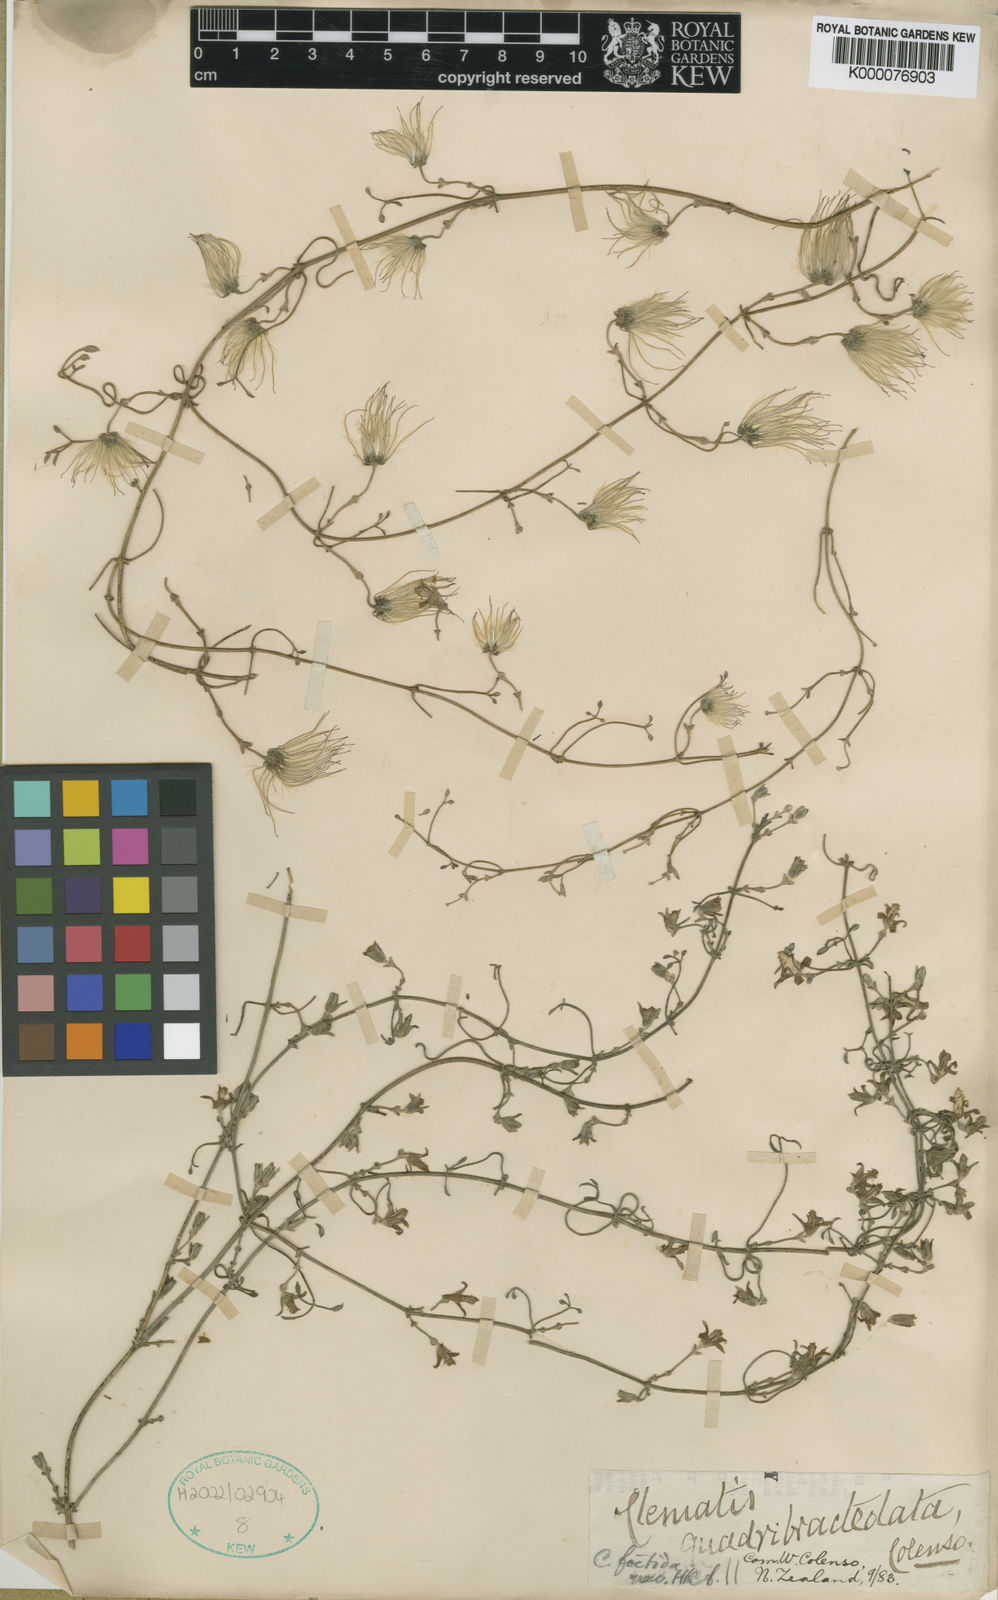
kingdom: Plantae
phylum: Tracheophyta
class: Magnoliopsida
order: Ranunculales
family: Ranunculaceae
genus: Clematis
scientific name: Clematis quadribracteolata
